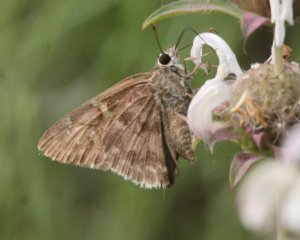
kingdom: Animalia
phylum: Arthropoda
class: Insecta
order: Lepidoptera
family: Hesperiidae
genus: Cogia
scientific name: Cogia hippalus
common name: Acacia Skipper
